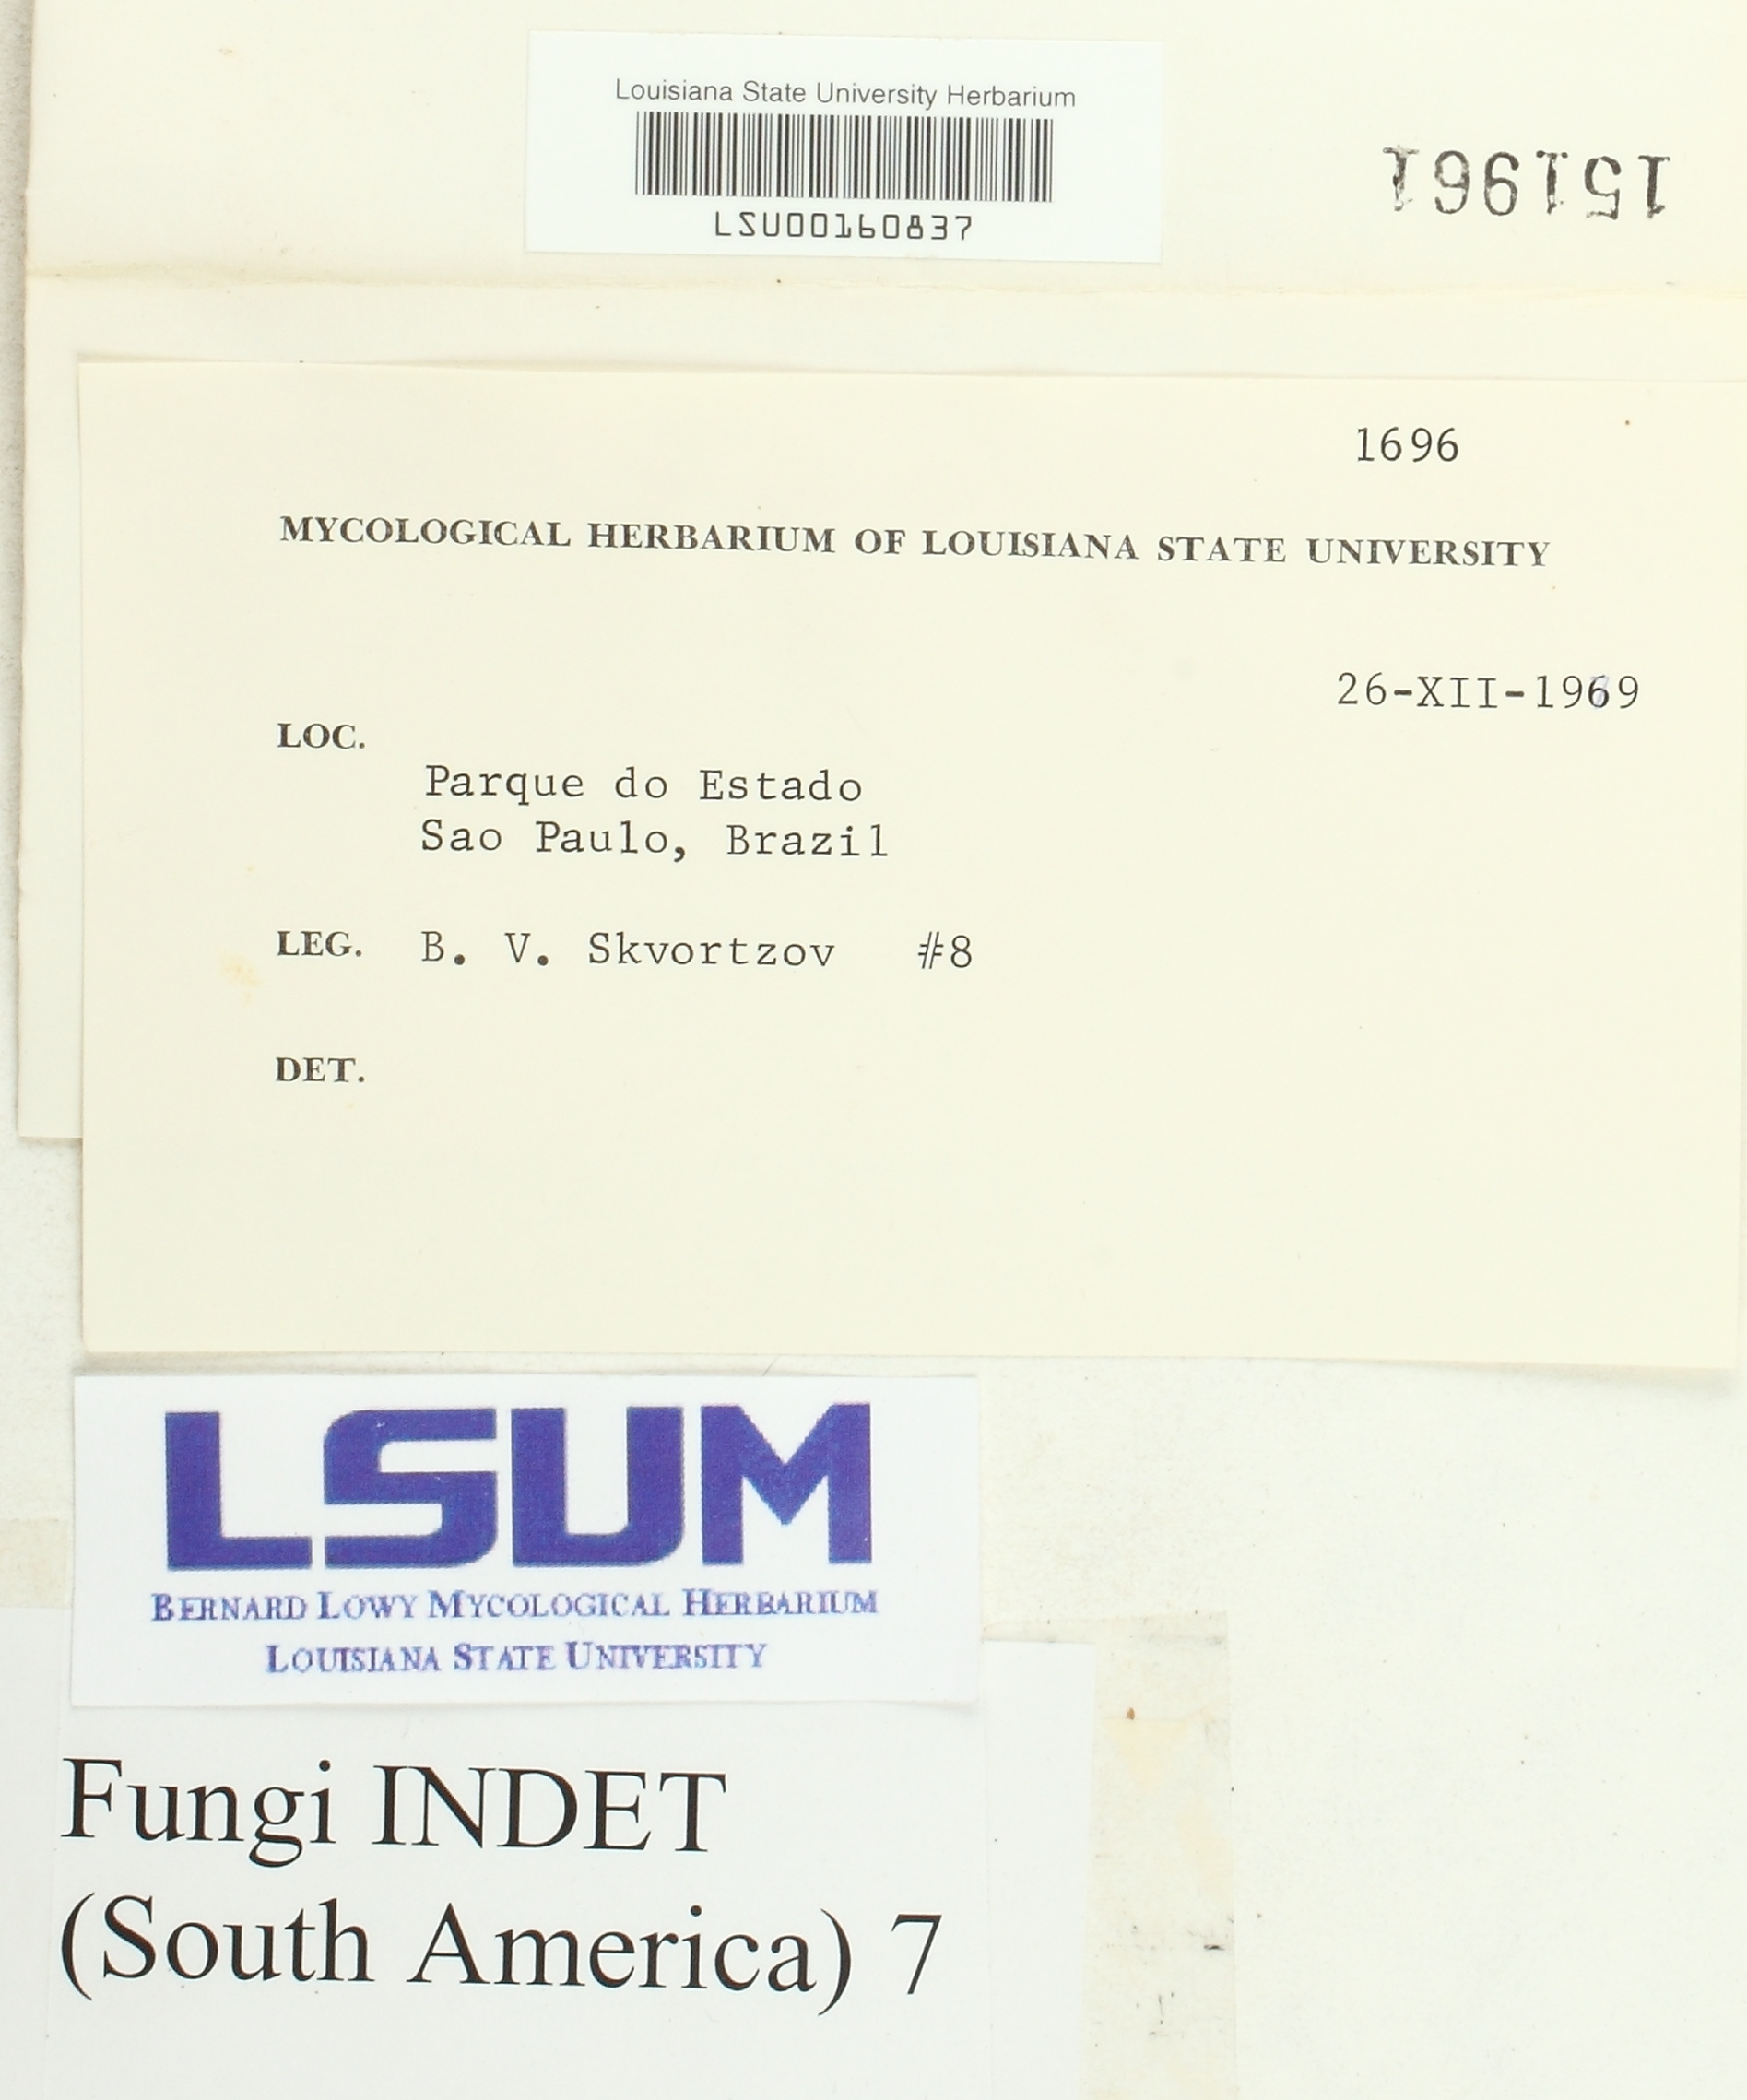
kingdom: Fungi
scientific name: Fungi
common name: Fungi
